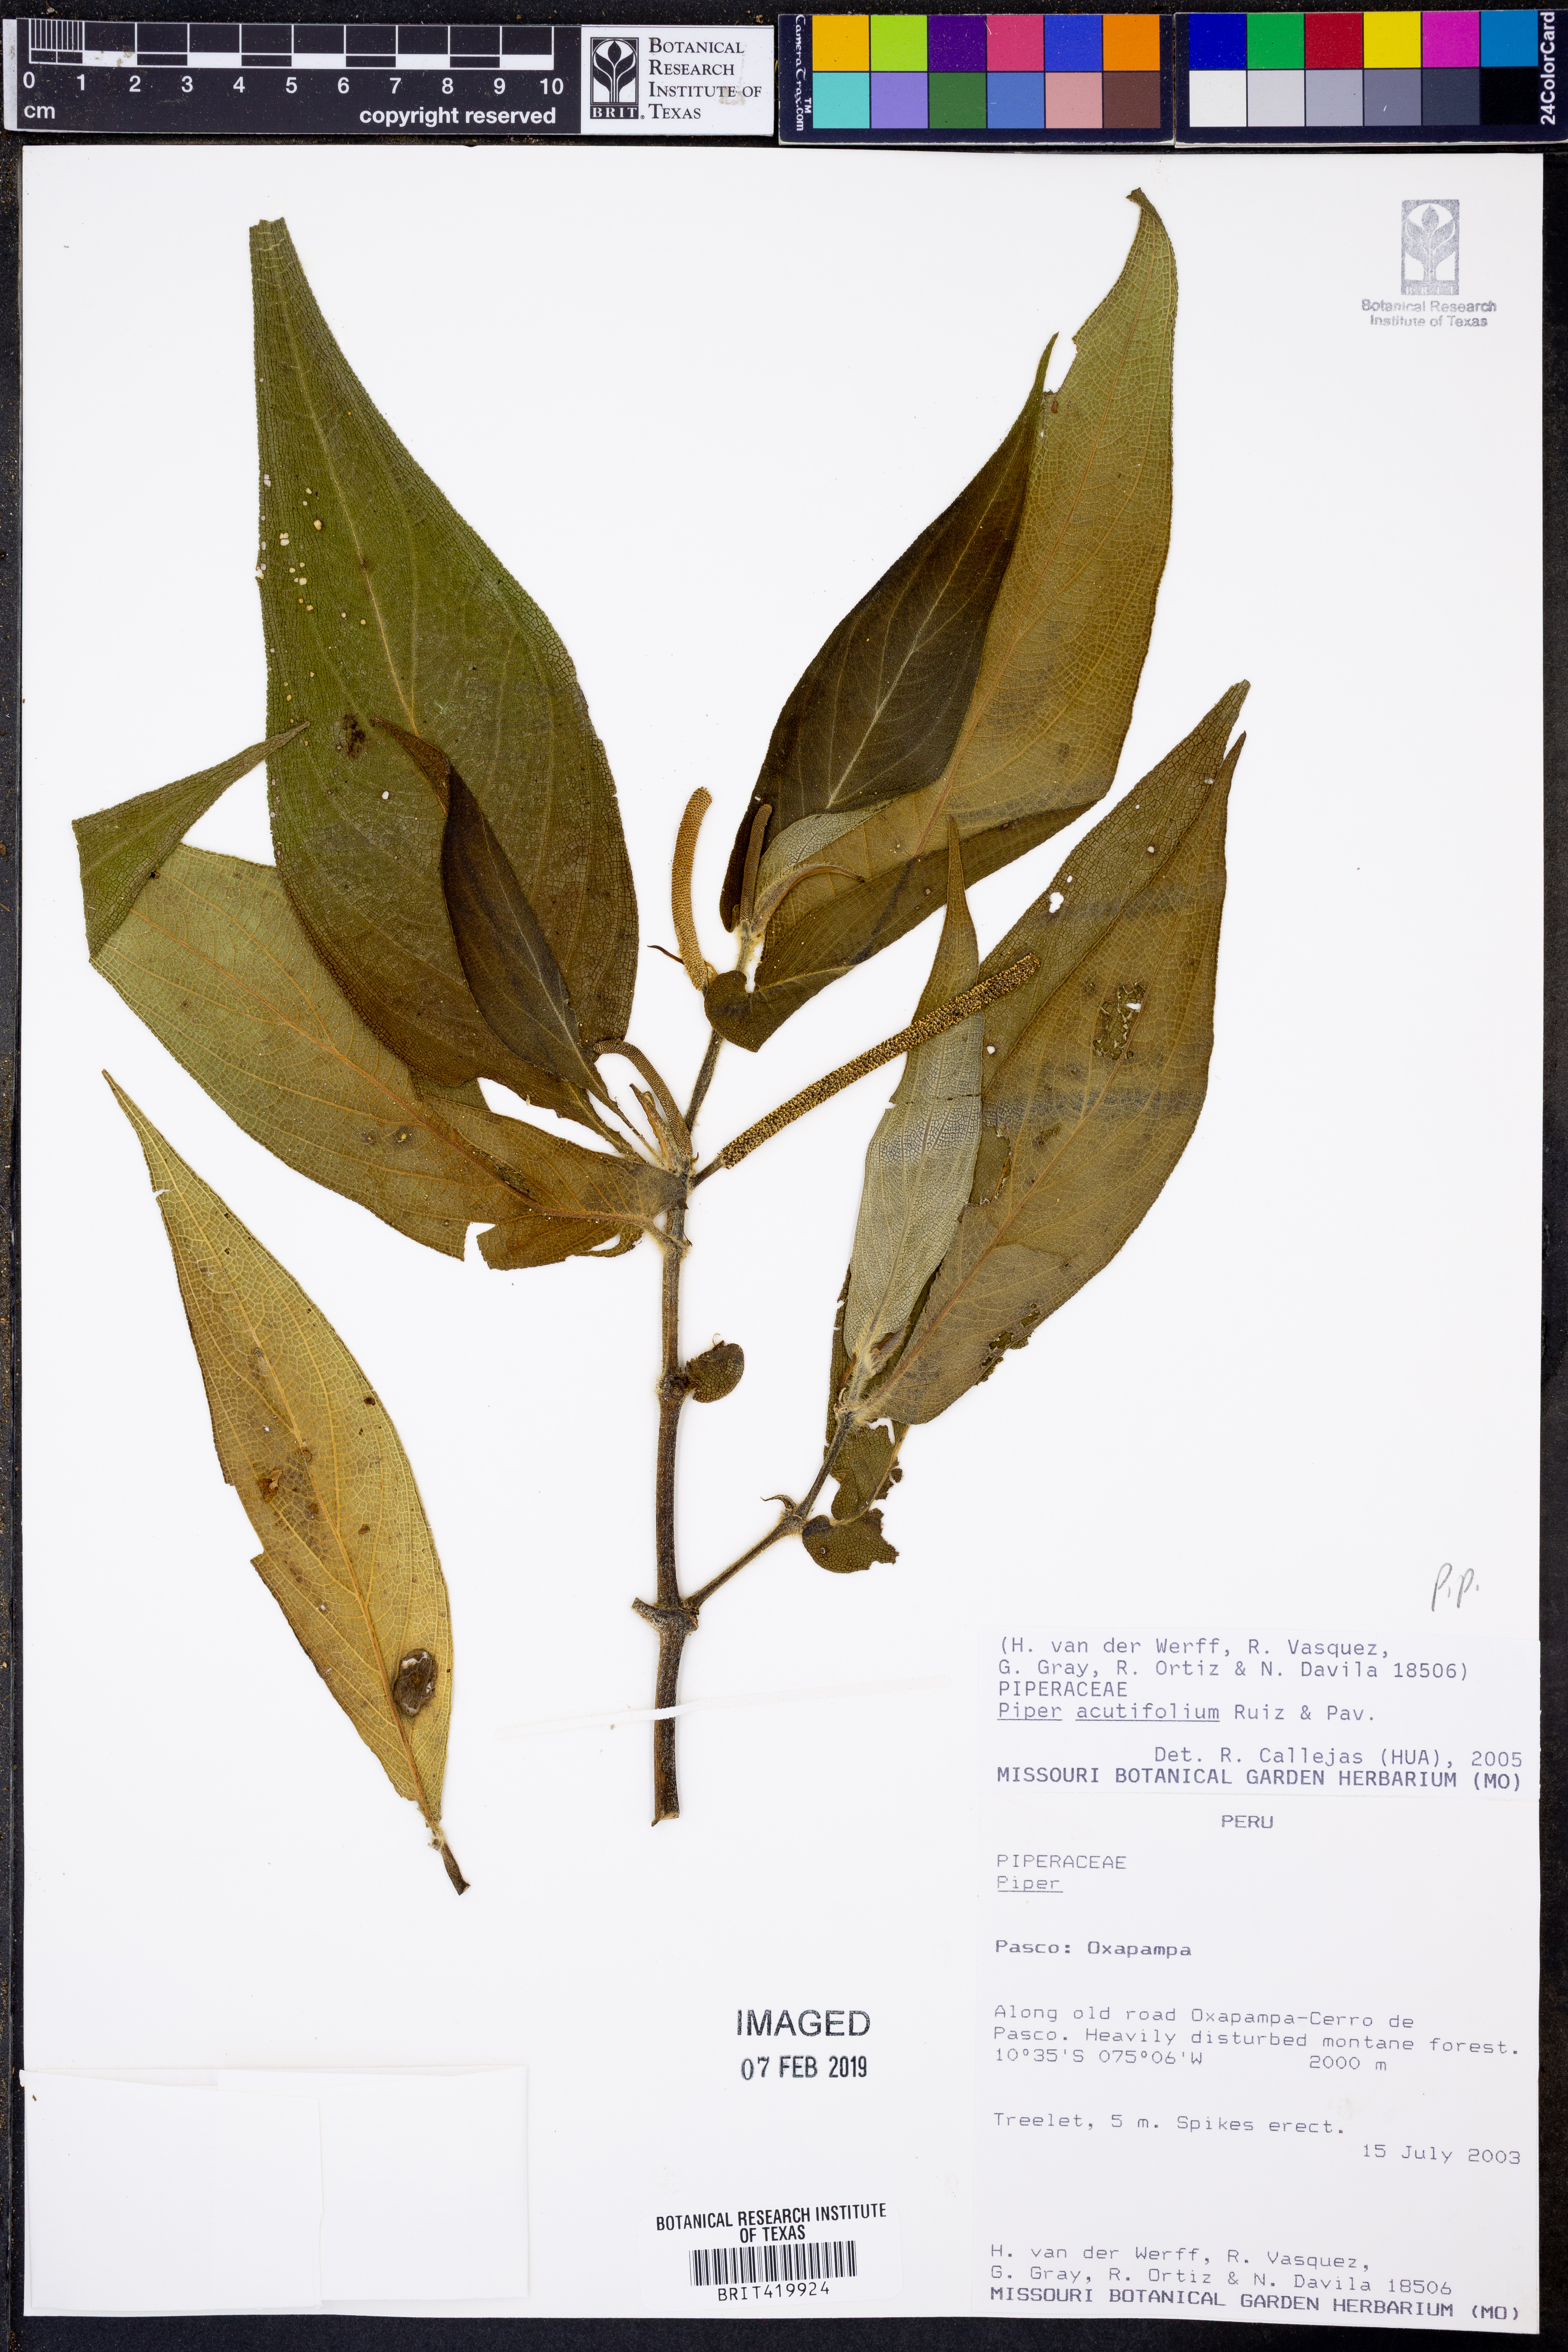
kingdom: Plantae
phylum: Tracheophyta
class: Magnoliopsida
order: Piperales
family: Piperaceae
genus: Piper
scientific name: Piper acutifolium
